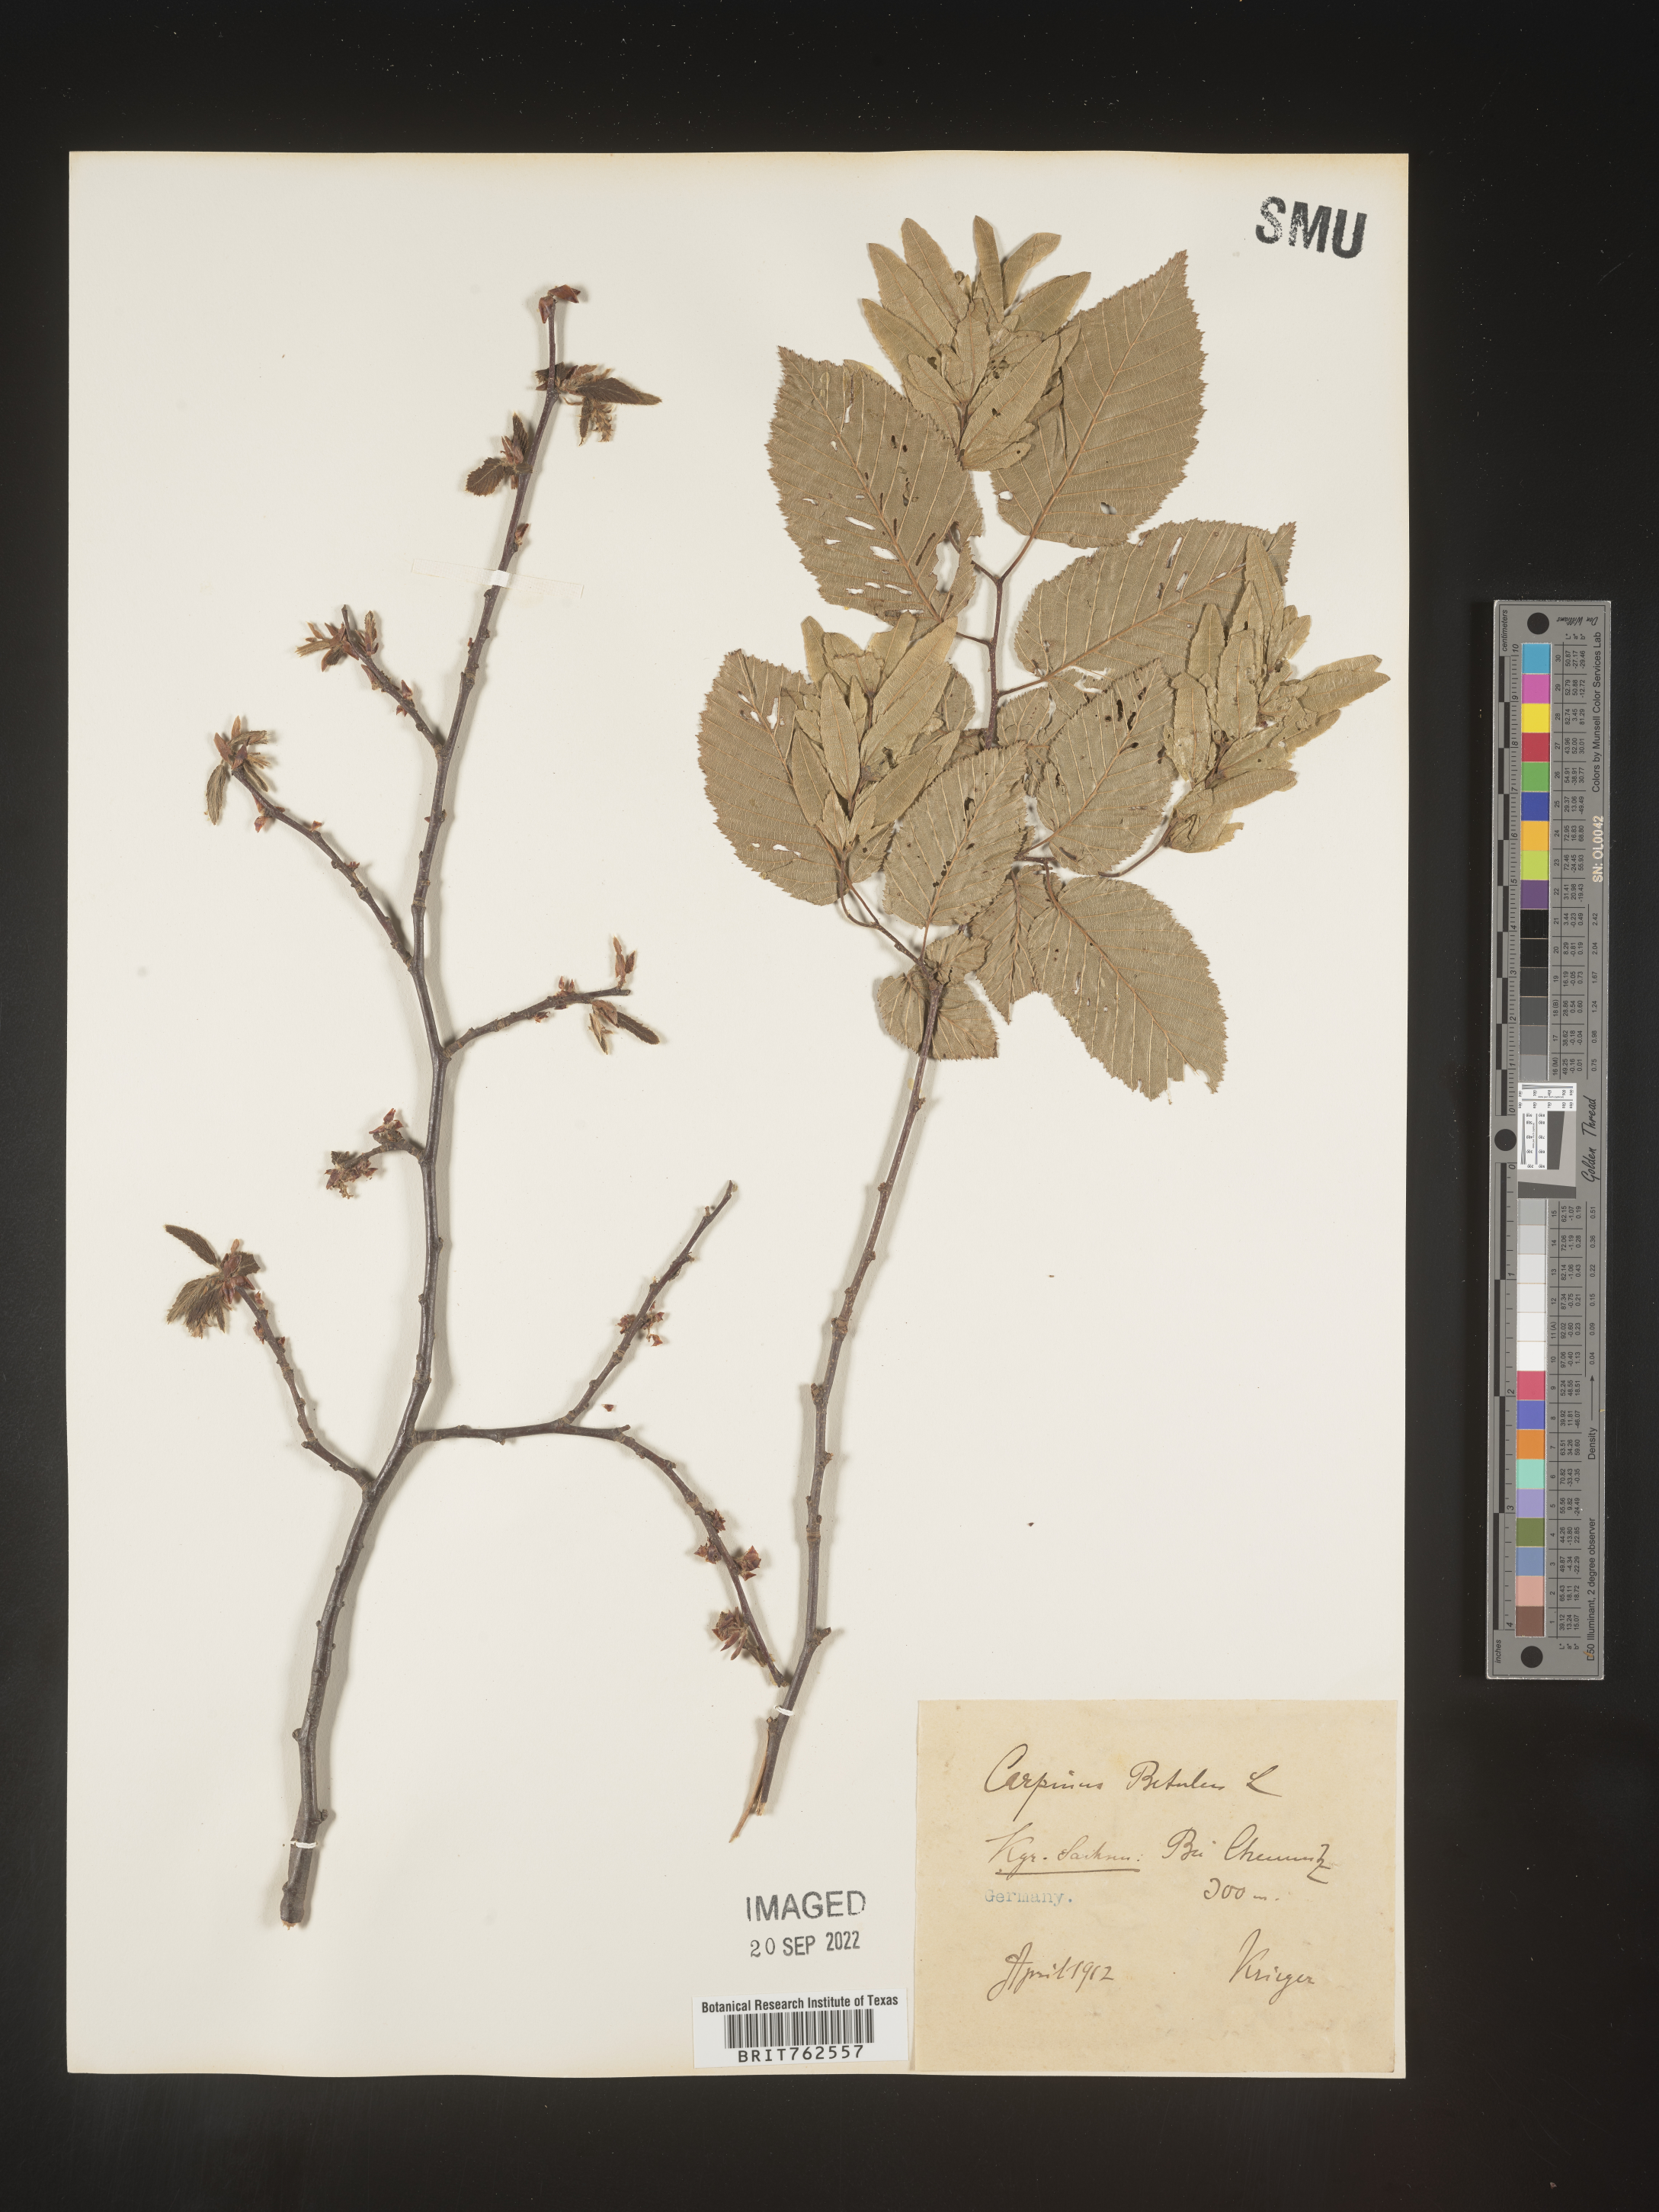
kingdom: Plantae
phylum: Tracheophyta
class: Magnoliopsida
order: Fagales
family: Betulaceae
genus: Carpinus
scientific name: Carpinus
